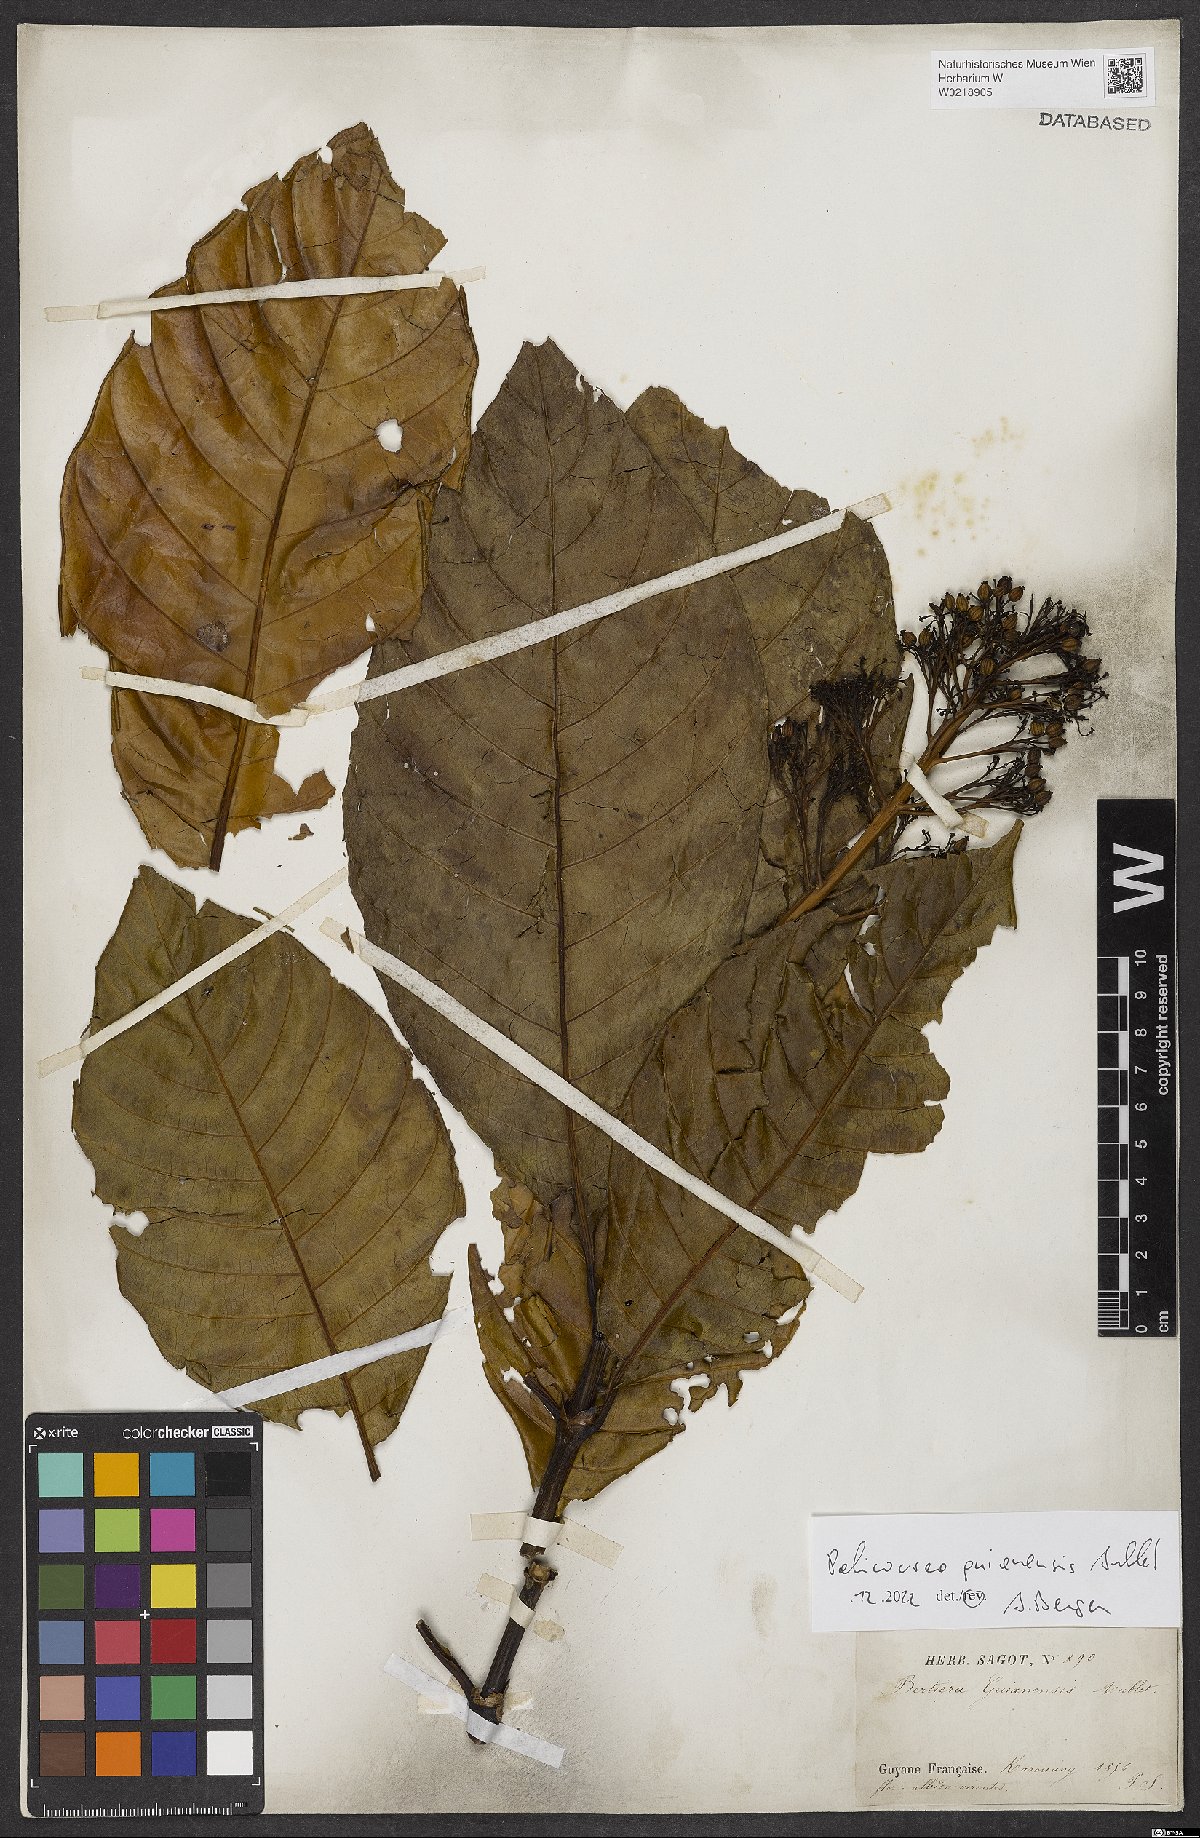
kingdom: Plantae
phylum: Tracheophyta
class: Magnoliopsida
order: Gentianales
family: Rubiaceae
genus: Palicourea
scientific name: Palicourea guianensis
